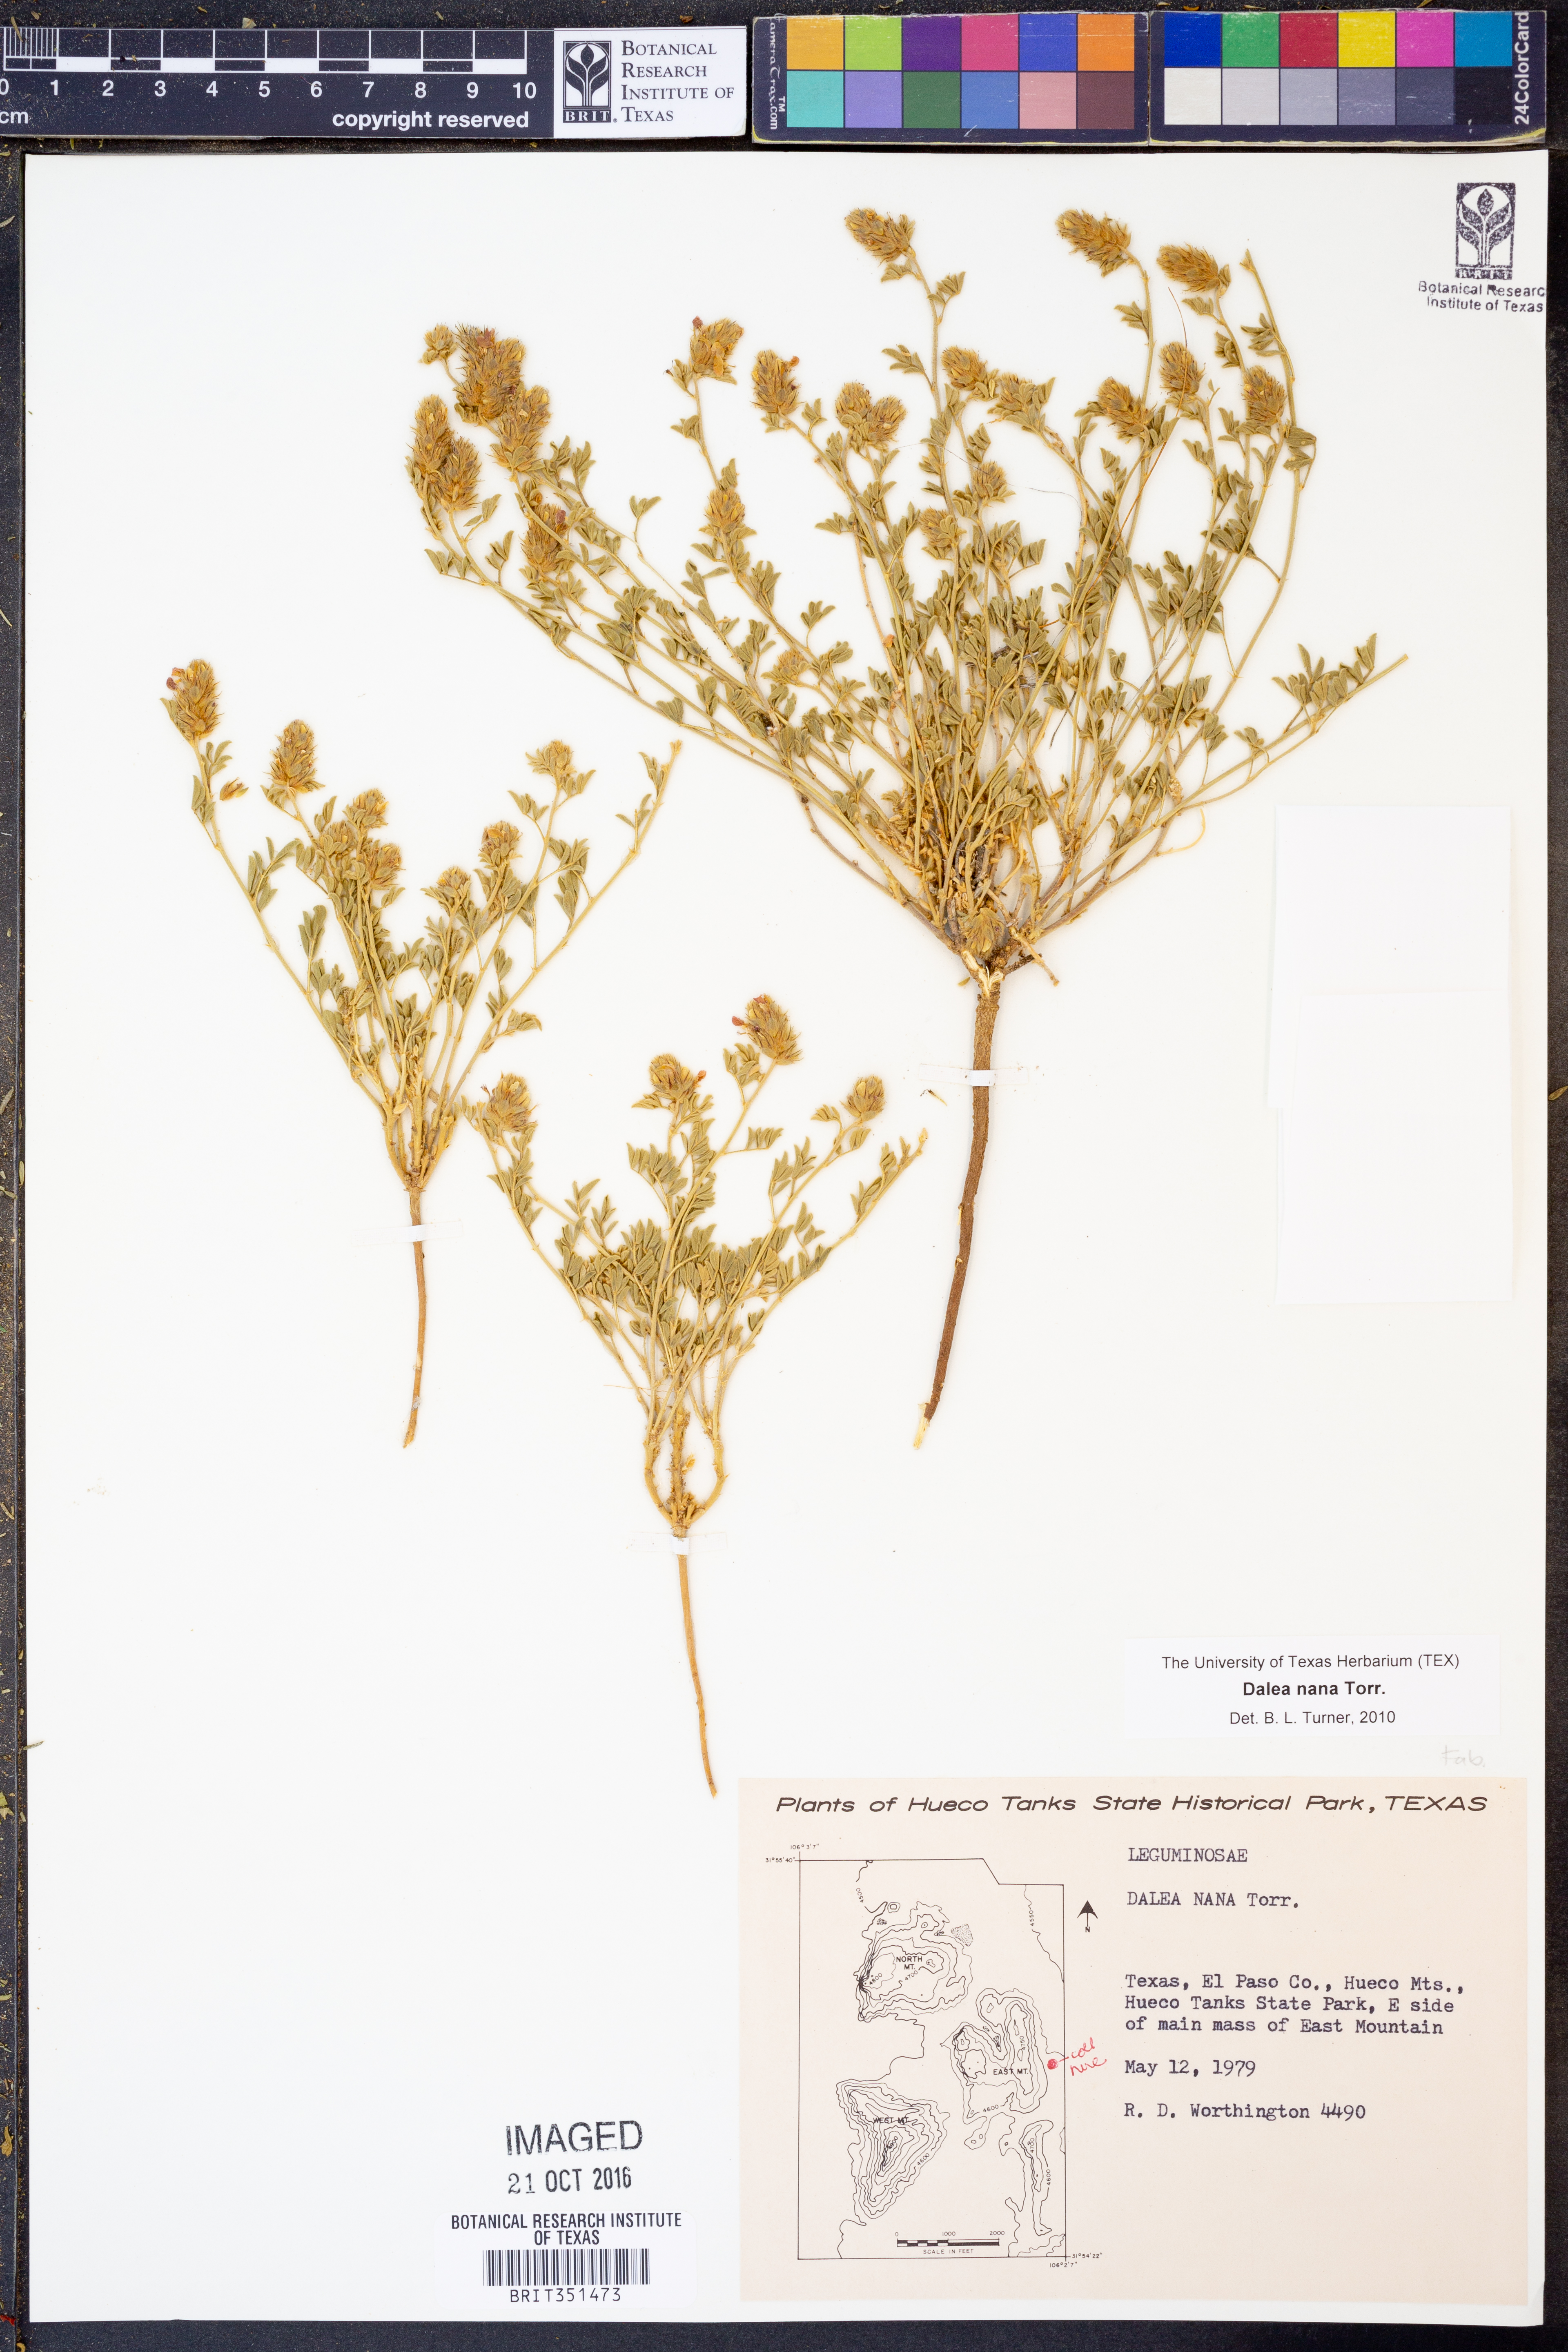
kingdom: Plantae
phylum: Tracheophyta
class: Magnoliopsida
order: Fabales
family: Fabaceae
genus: Dalea
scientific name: Dalea nana
